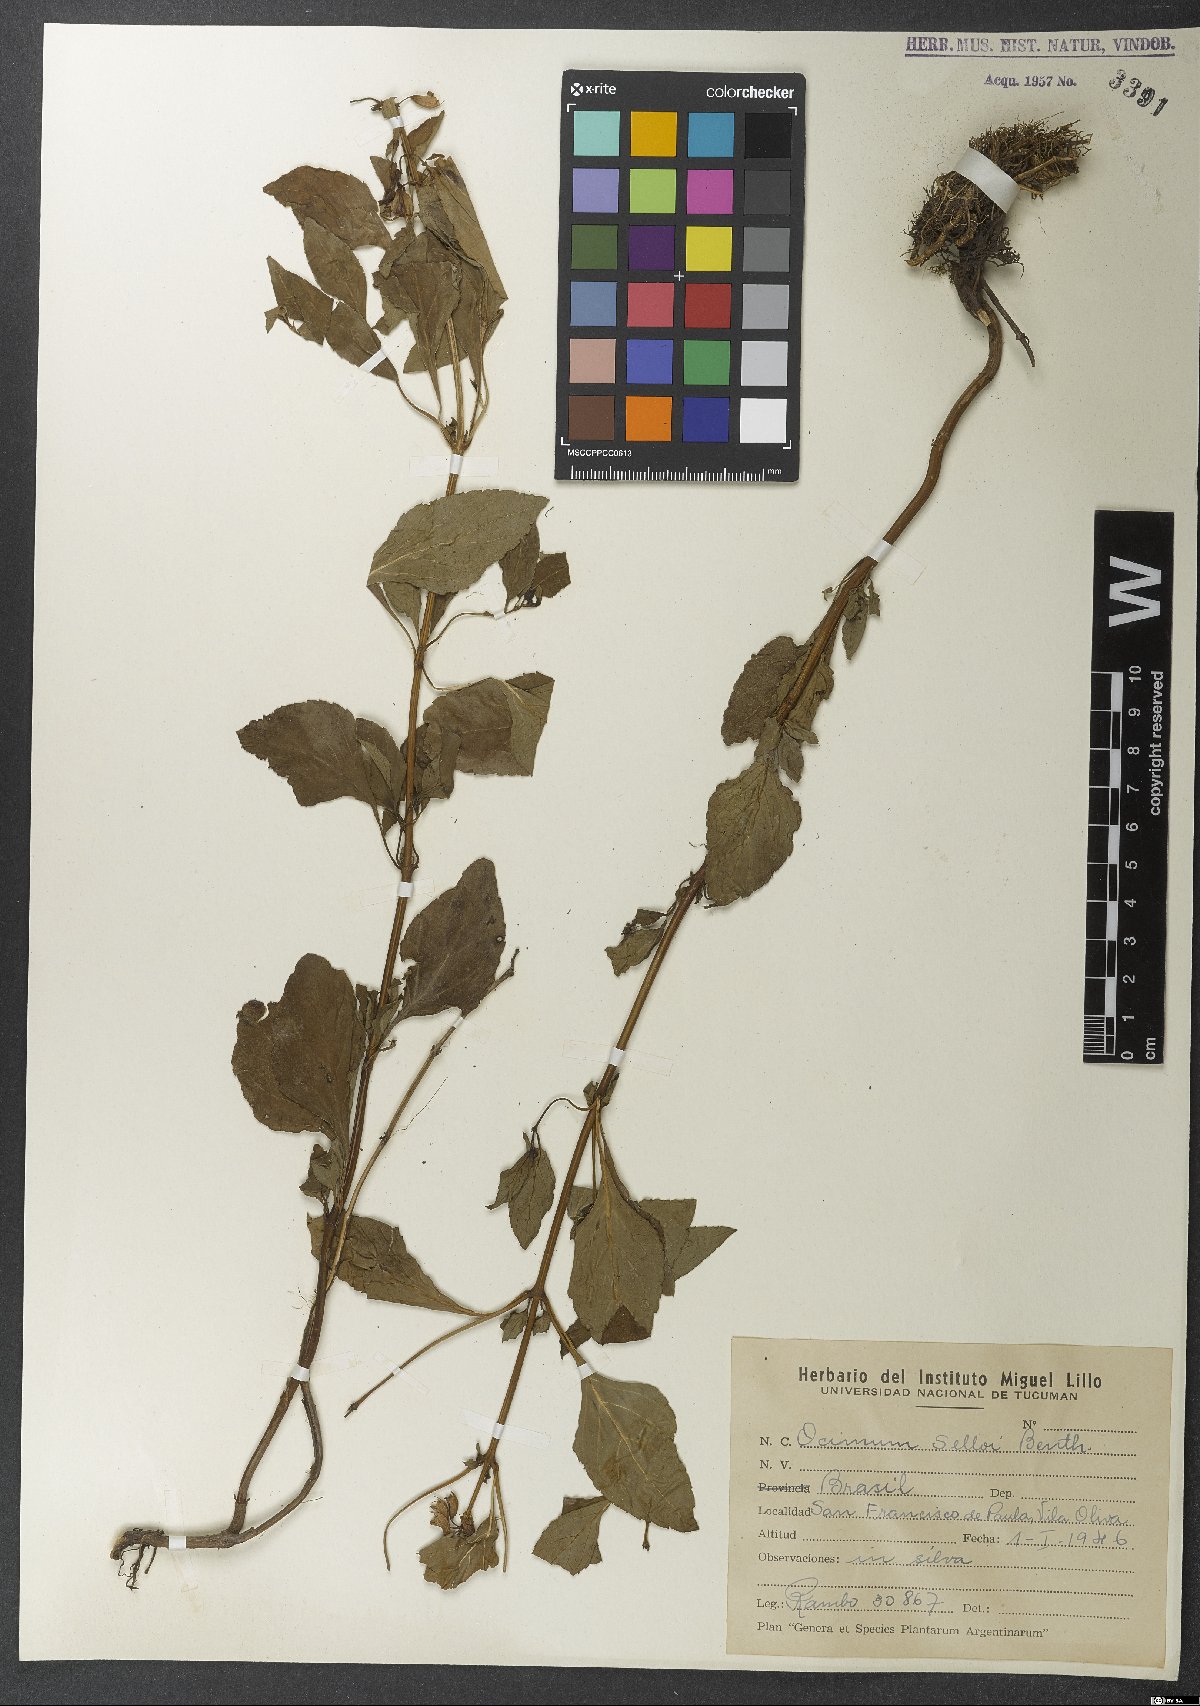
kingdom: Plantae
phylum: Tracheophyta
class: Magnoliopsida
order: Lamiales
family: Lamiaceae
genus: Ocimum
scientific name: Ocimum
